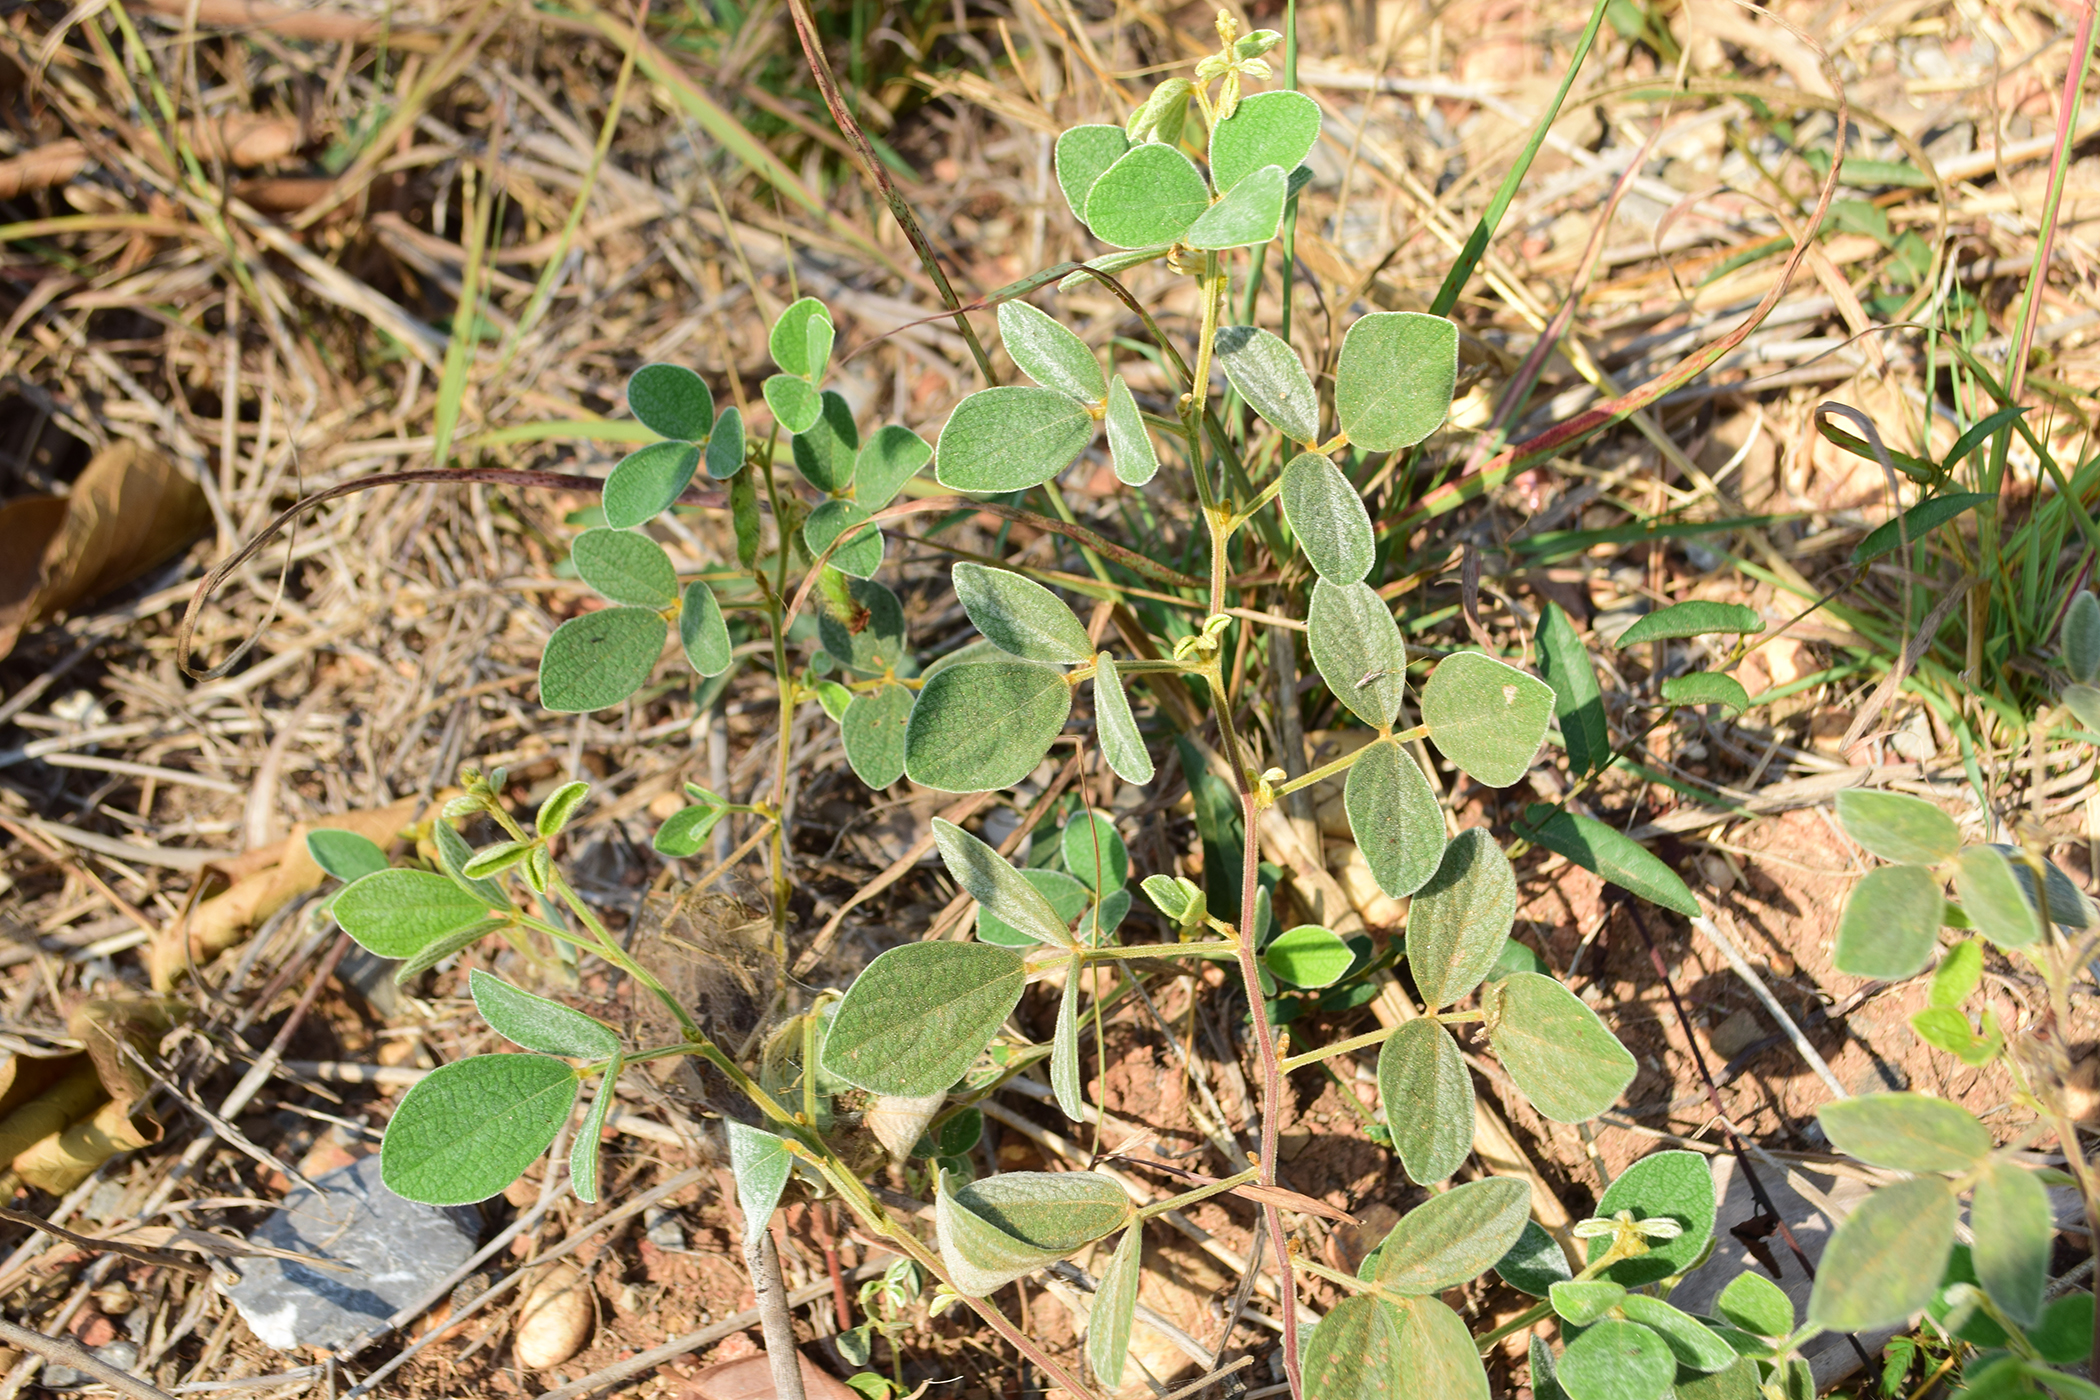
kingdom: Plantae
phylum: Tracheophyta
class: Magnoliopsida
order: Fabales
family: Fabaceae
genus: Cajanus
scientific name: Cajanus scarabaeoides
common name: Showy pigeonpea
